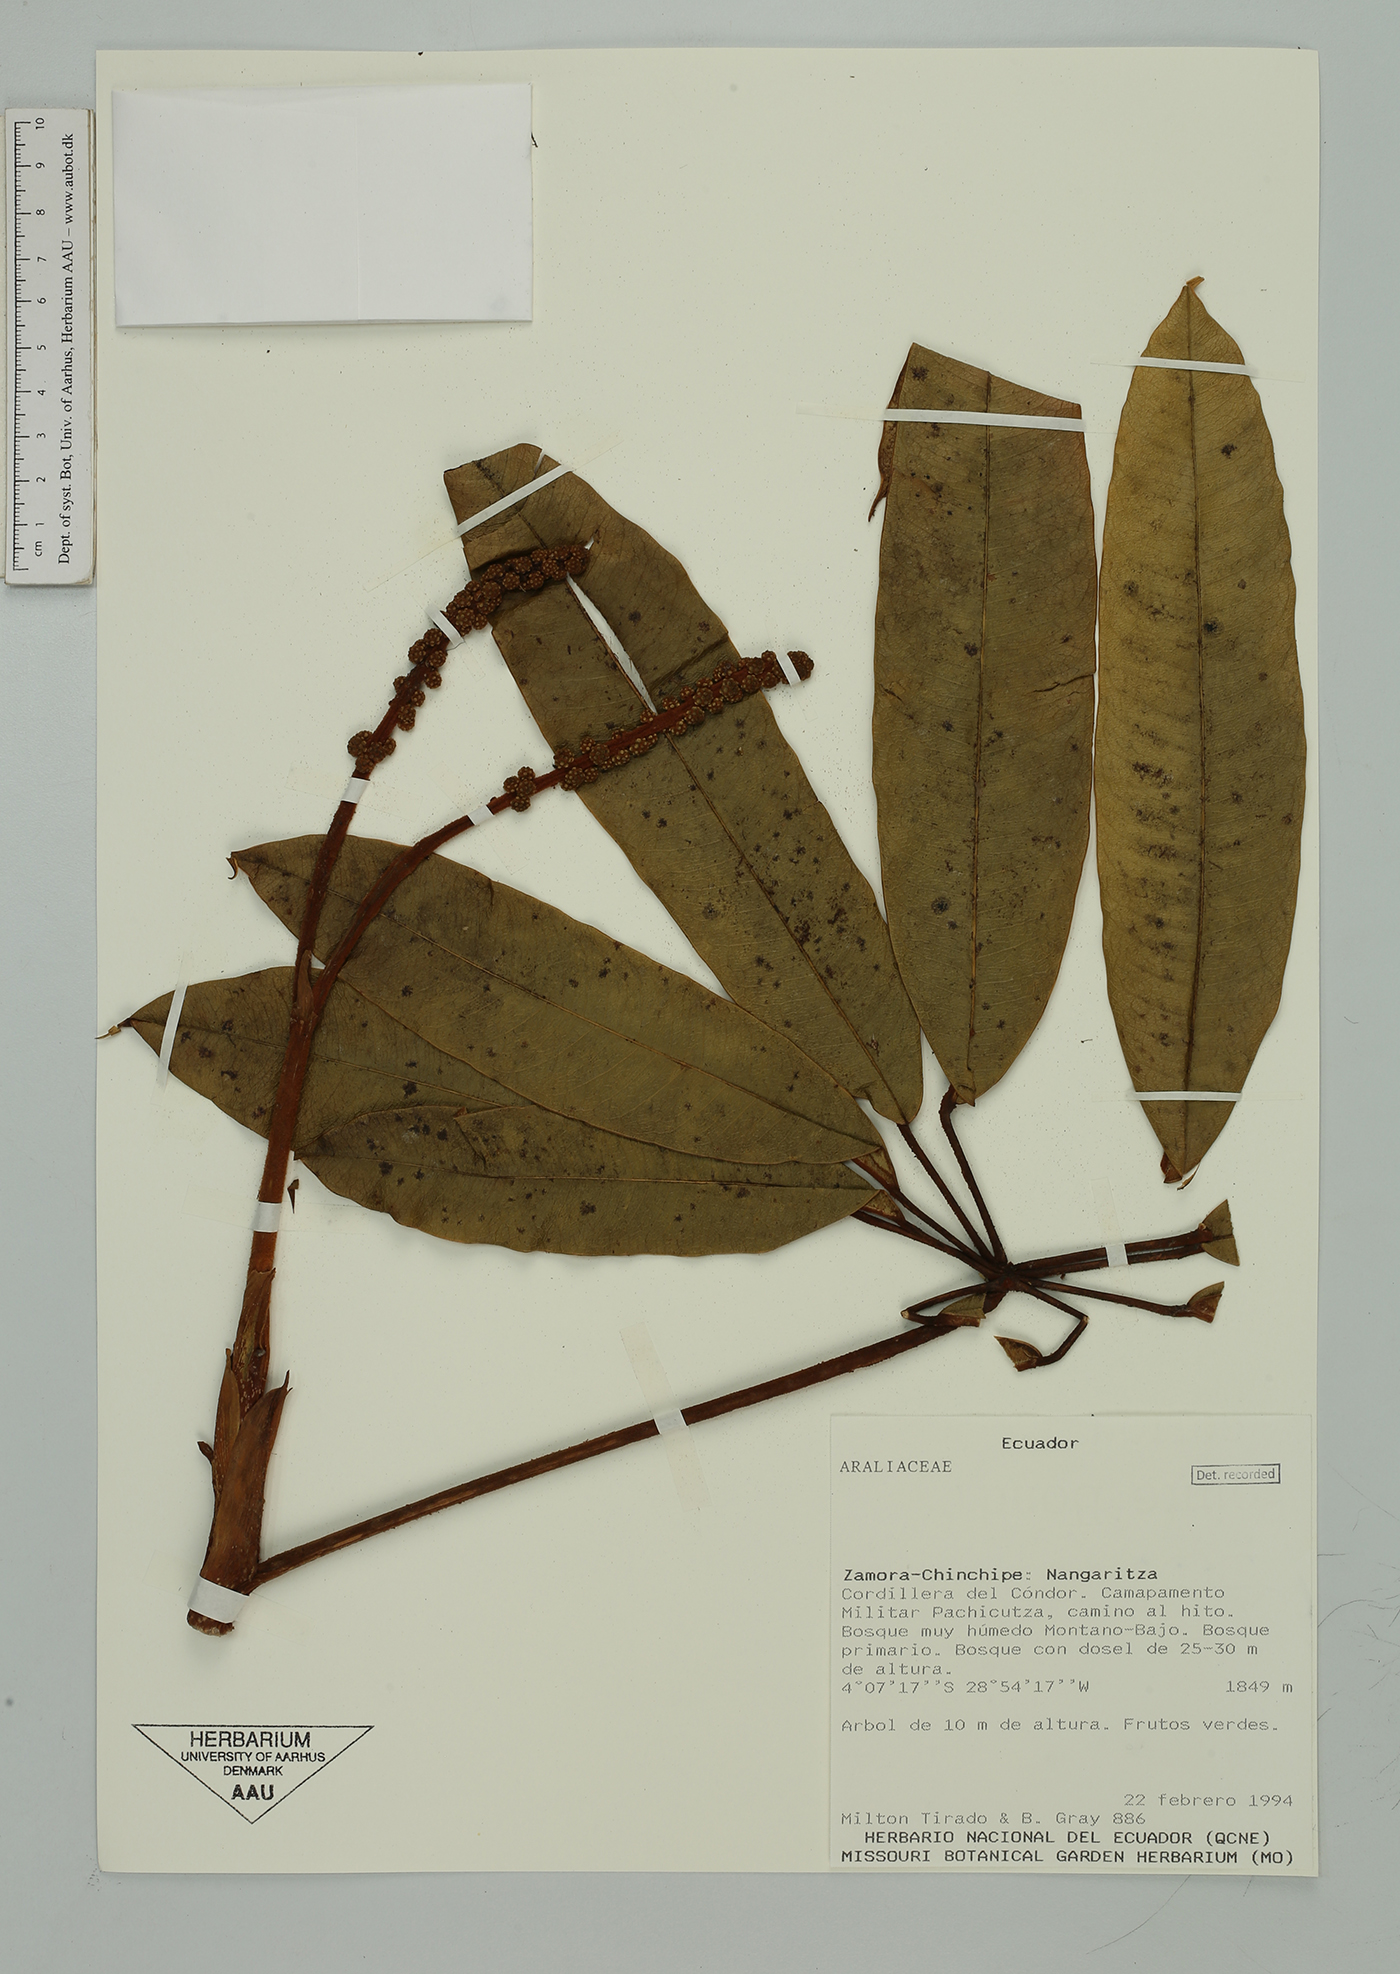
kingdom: Plantae
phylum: Tracheophyta
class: Magnoliopsida
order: Apiales
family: Araliaceae
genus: Sciodaphyllum
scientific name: Sciodaphyllum
